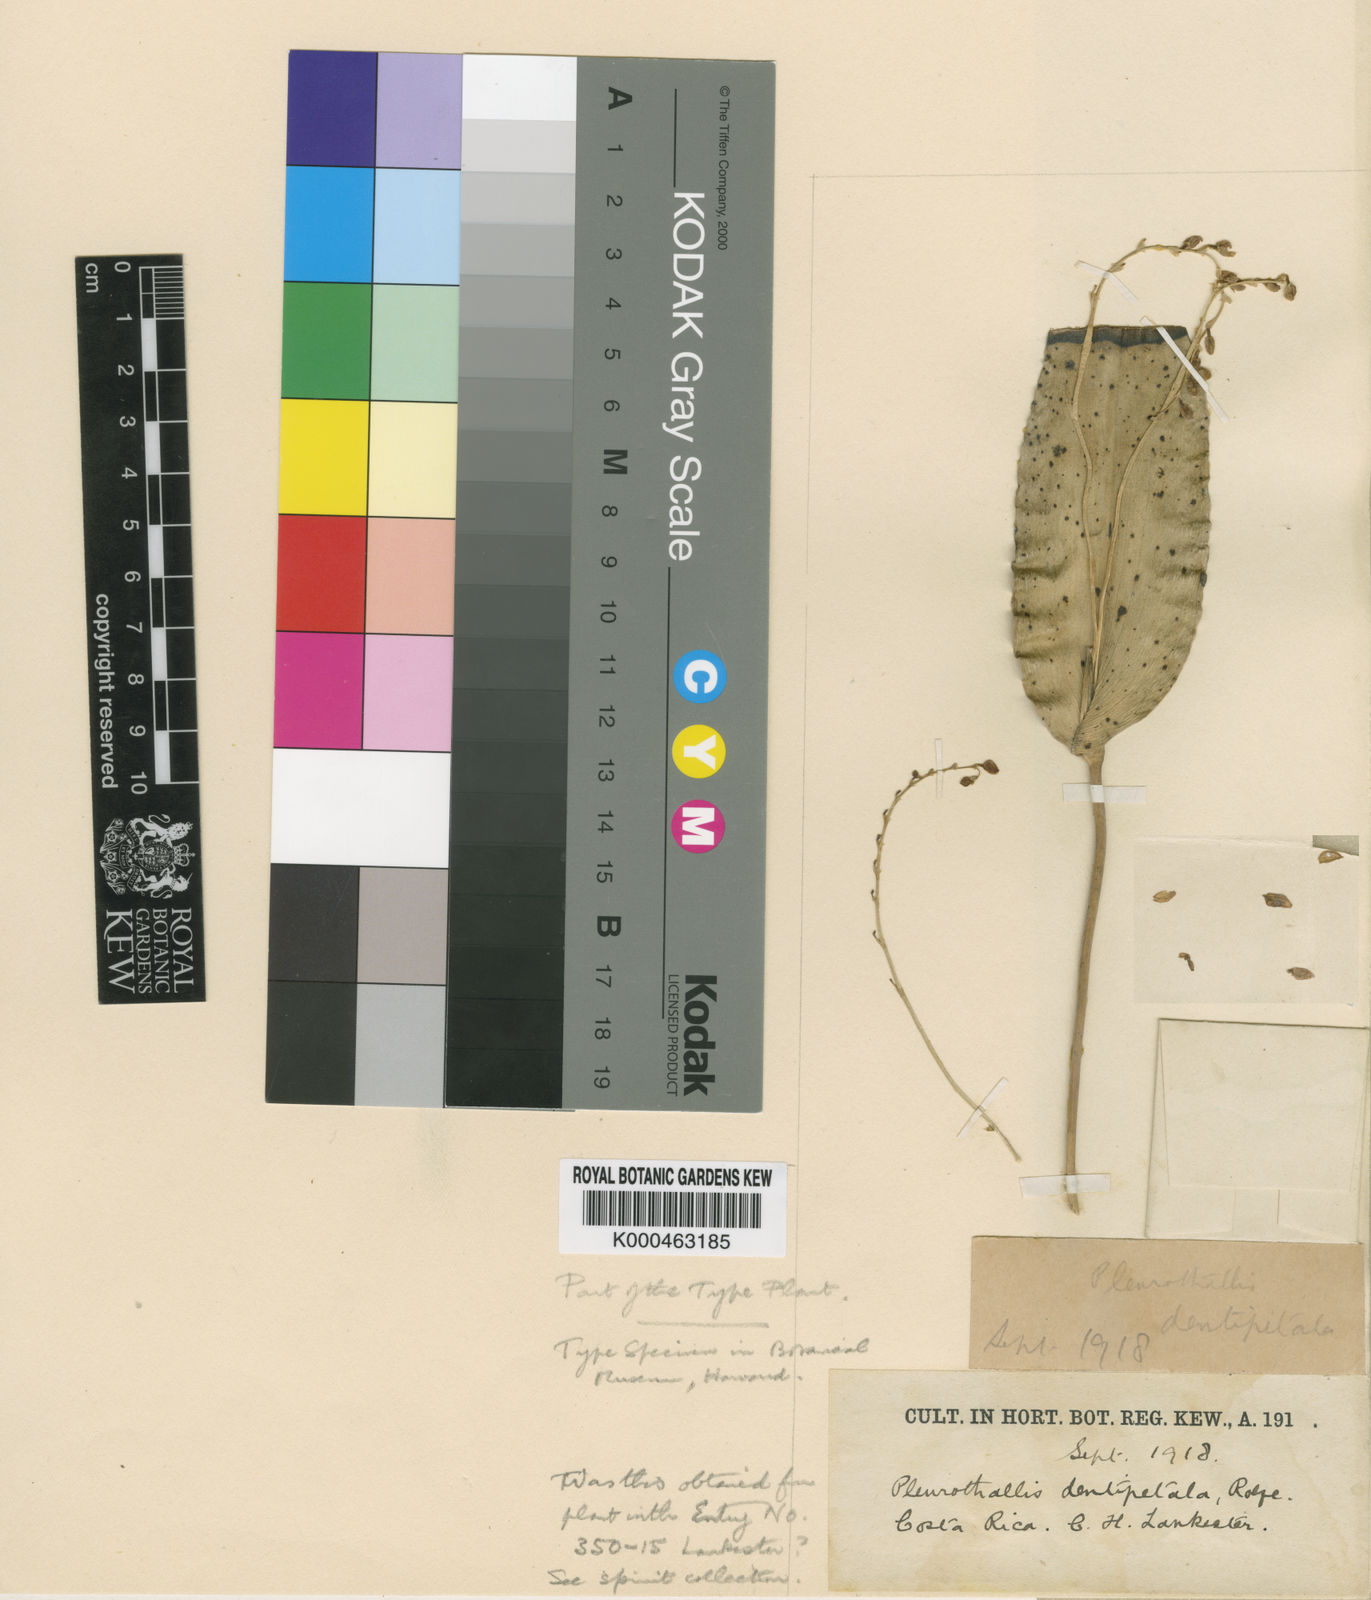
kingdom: Plantae
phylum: Tracheophyta
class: Liliopsida
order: Asparagales
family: Orchidaceae
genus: Pleurothallis
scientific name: Pleurothallis dentipetala
